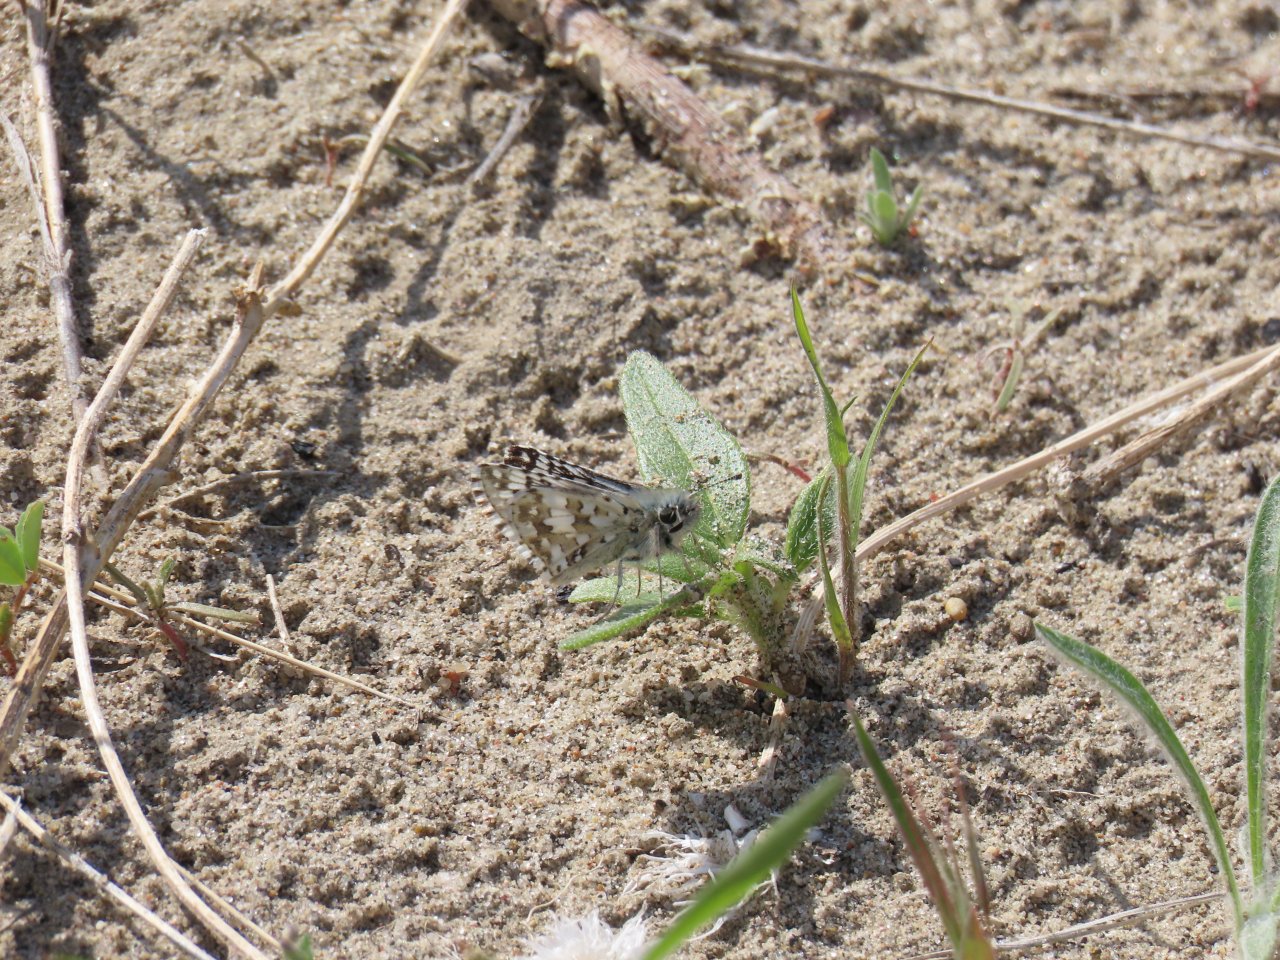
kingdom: Animalia
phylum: Arthropoda
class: Insecta
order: Lepidoptera
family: Hesperiidae
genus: Pyrgus
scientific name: Pyrgus communis
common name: Common Checkered-Skipper
